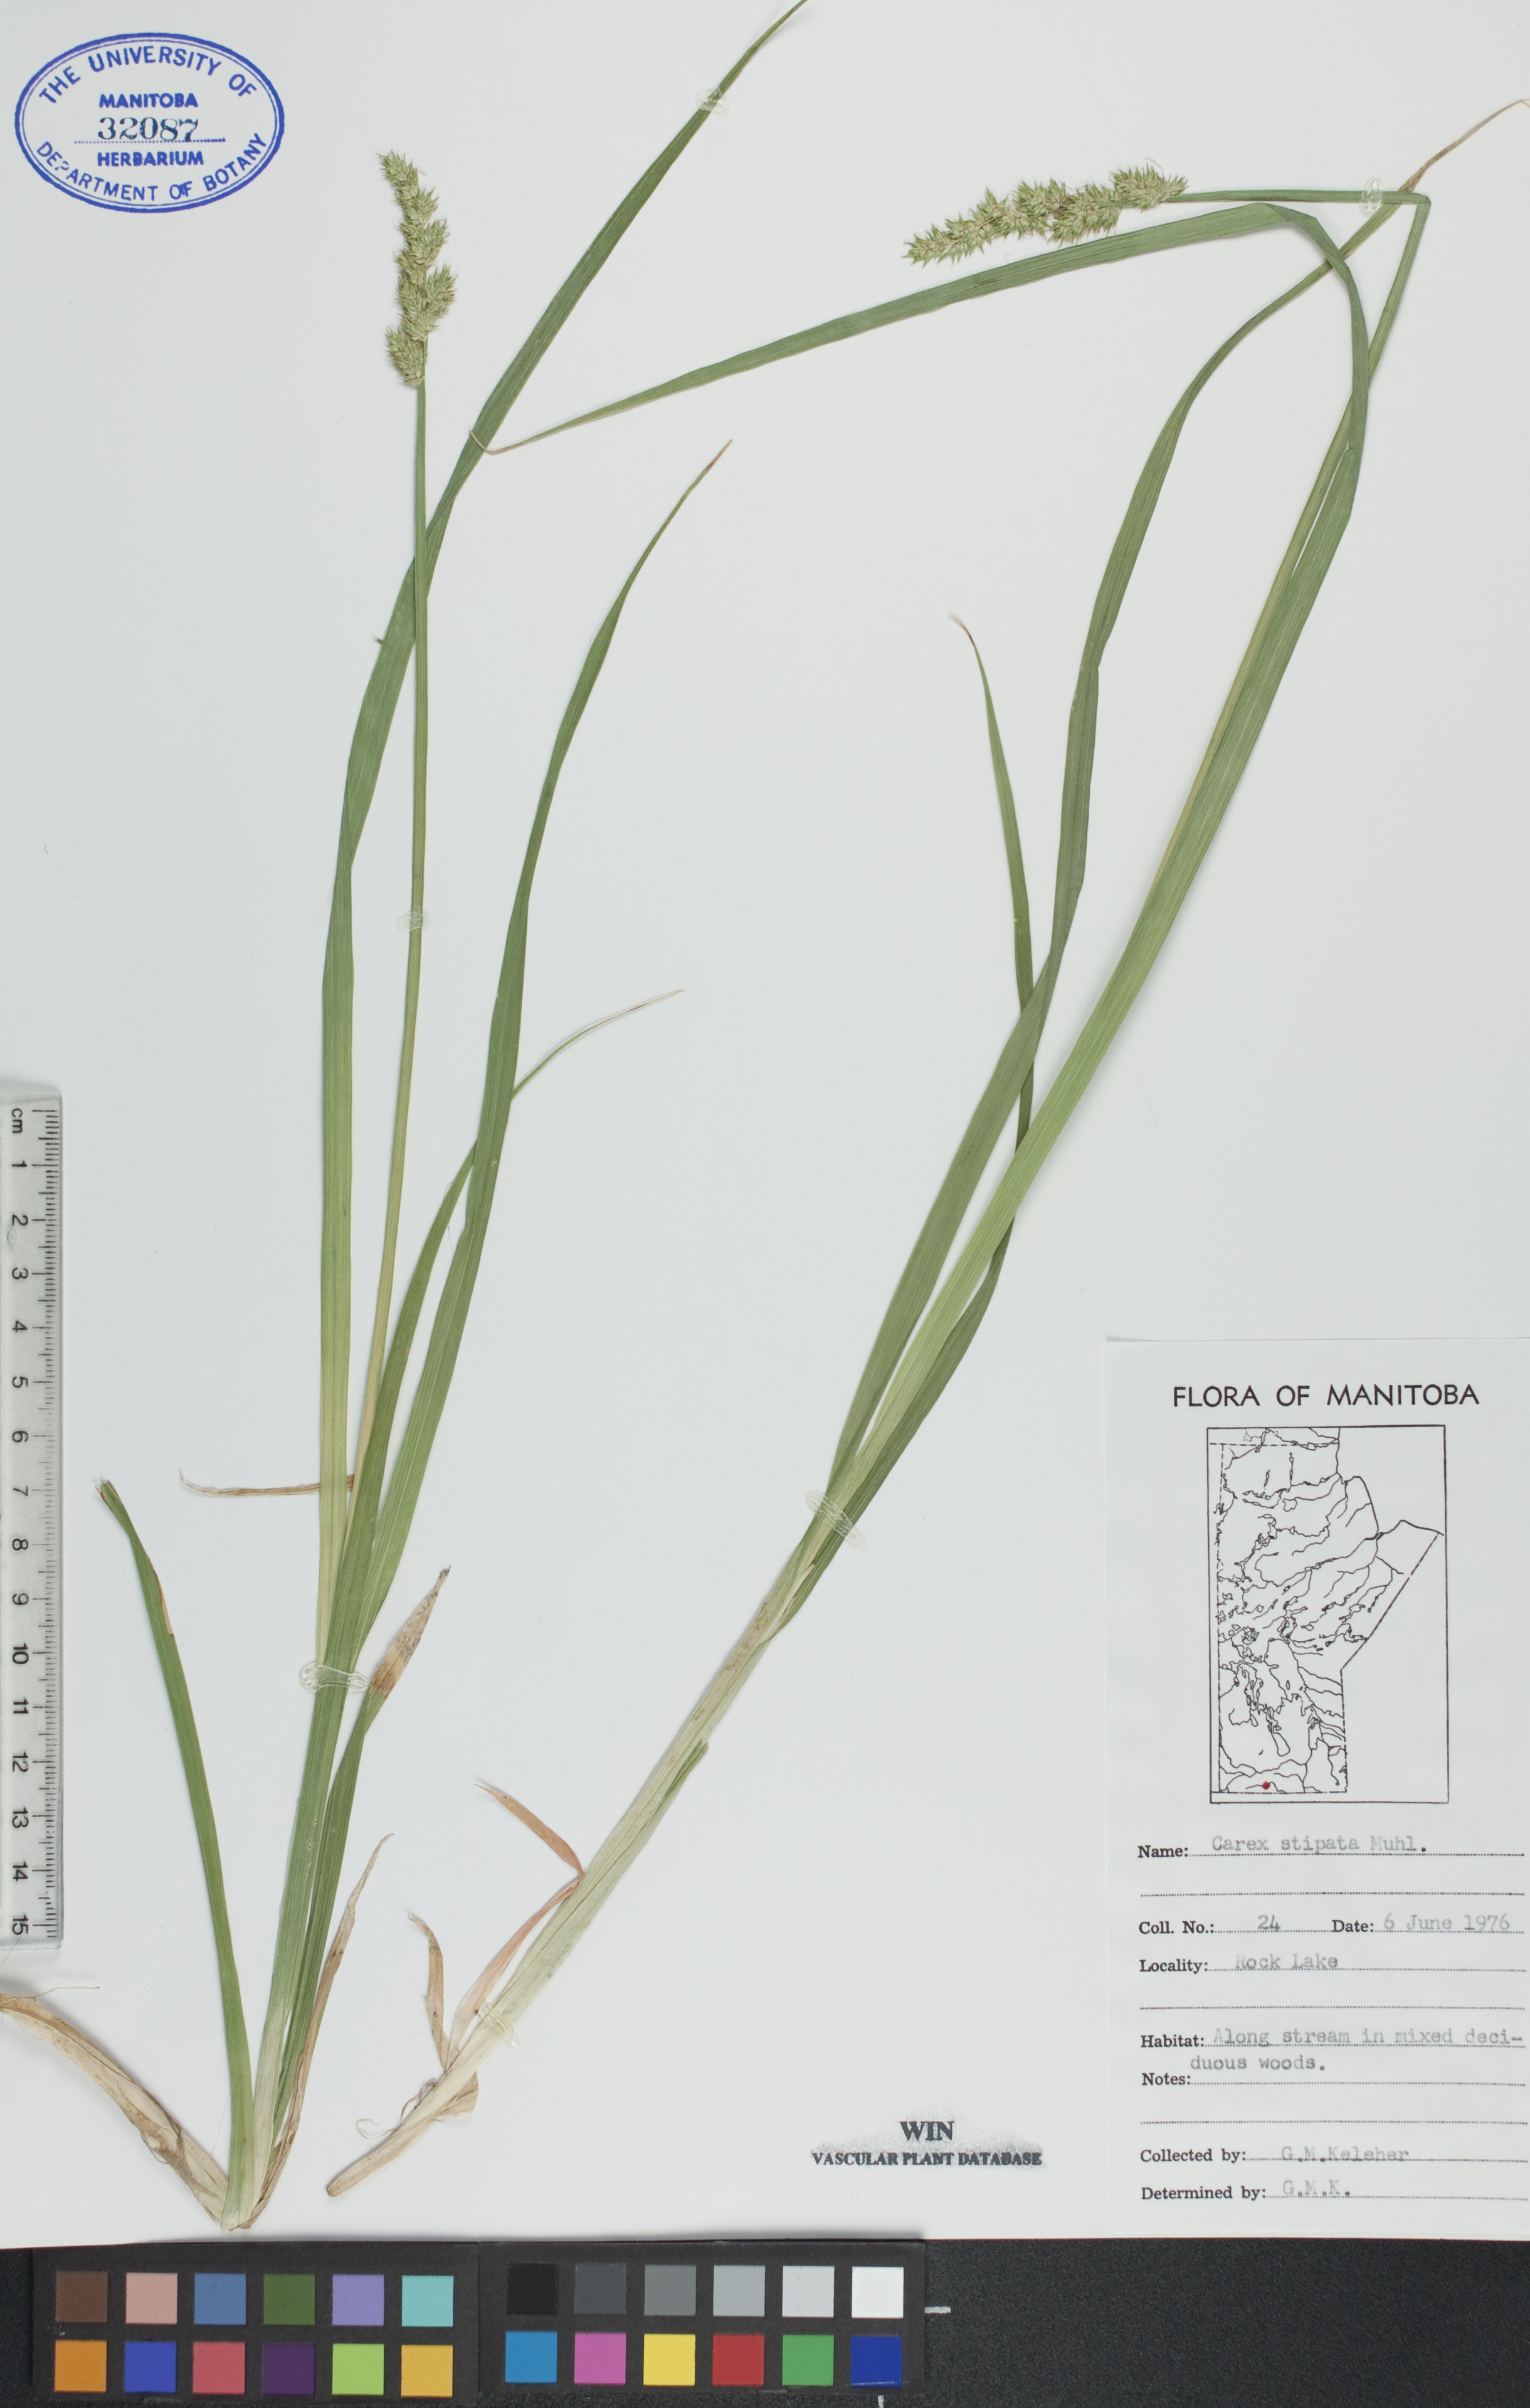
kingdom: Plantae
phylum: Tracheophyta
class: Liliopsida
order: Poales
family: Cyperaceae
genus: Carex
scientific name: Carex stipata
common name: Awl-fruited sedge
